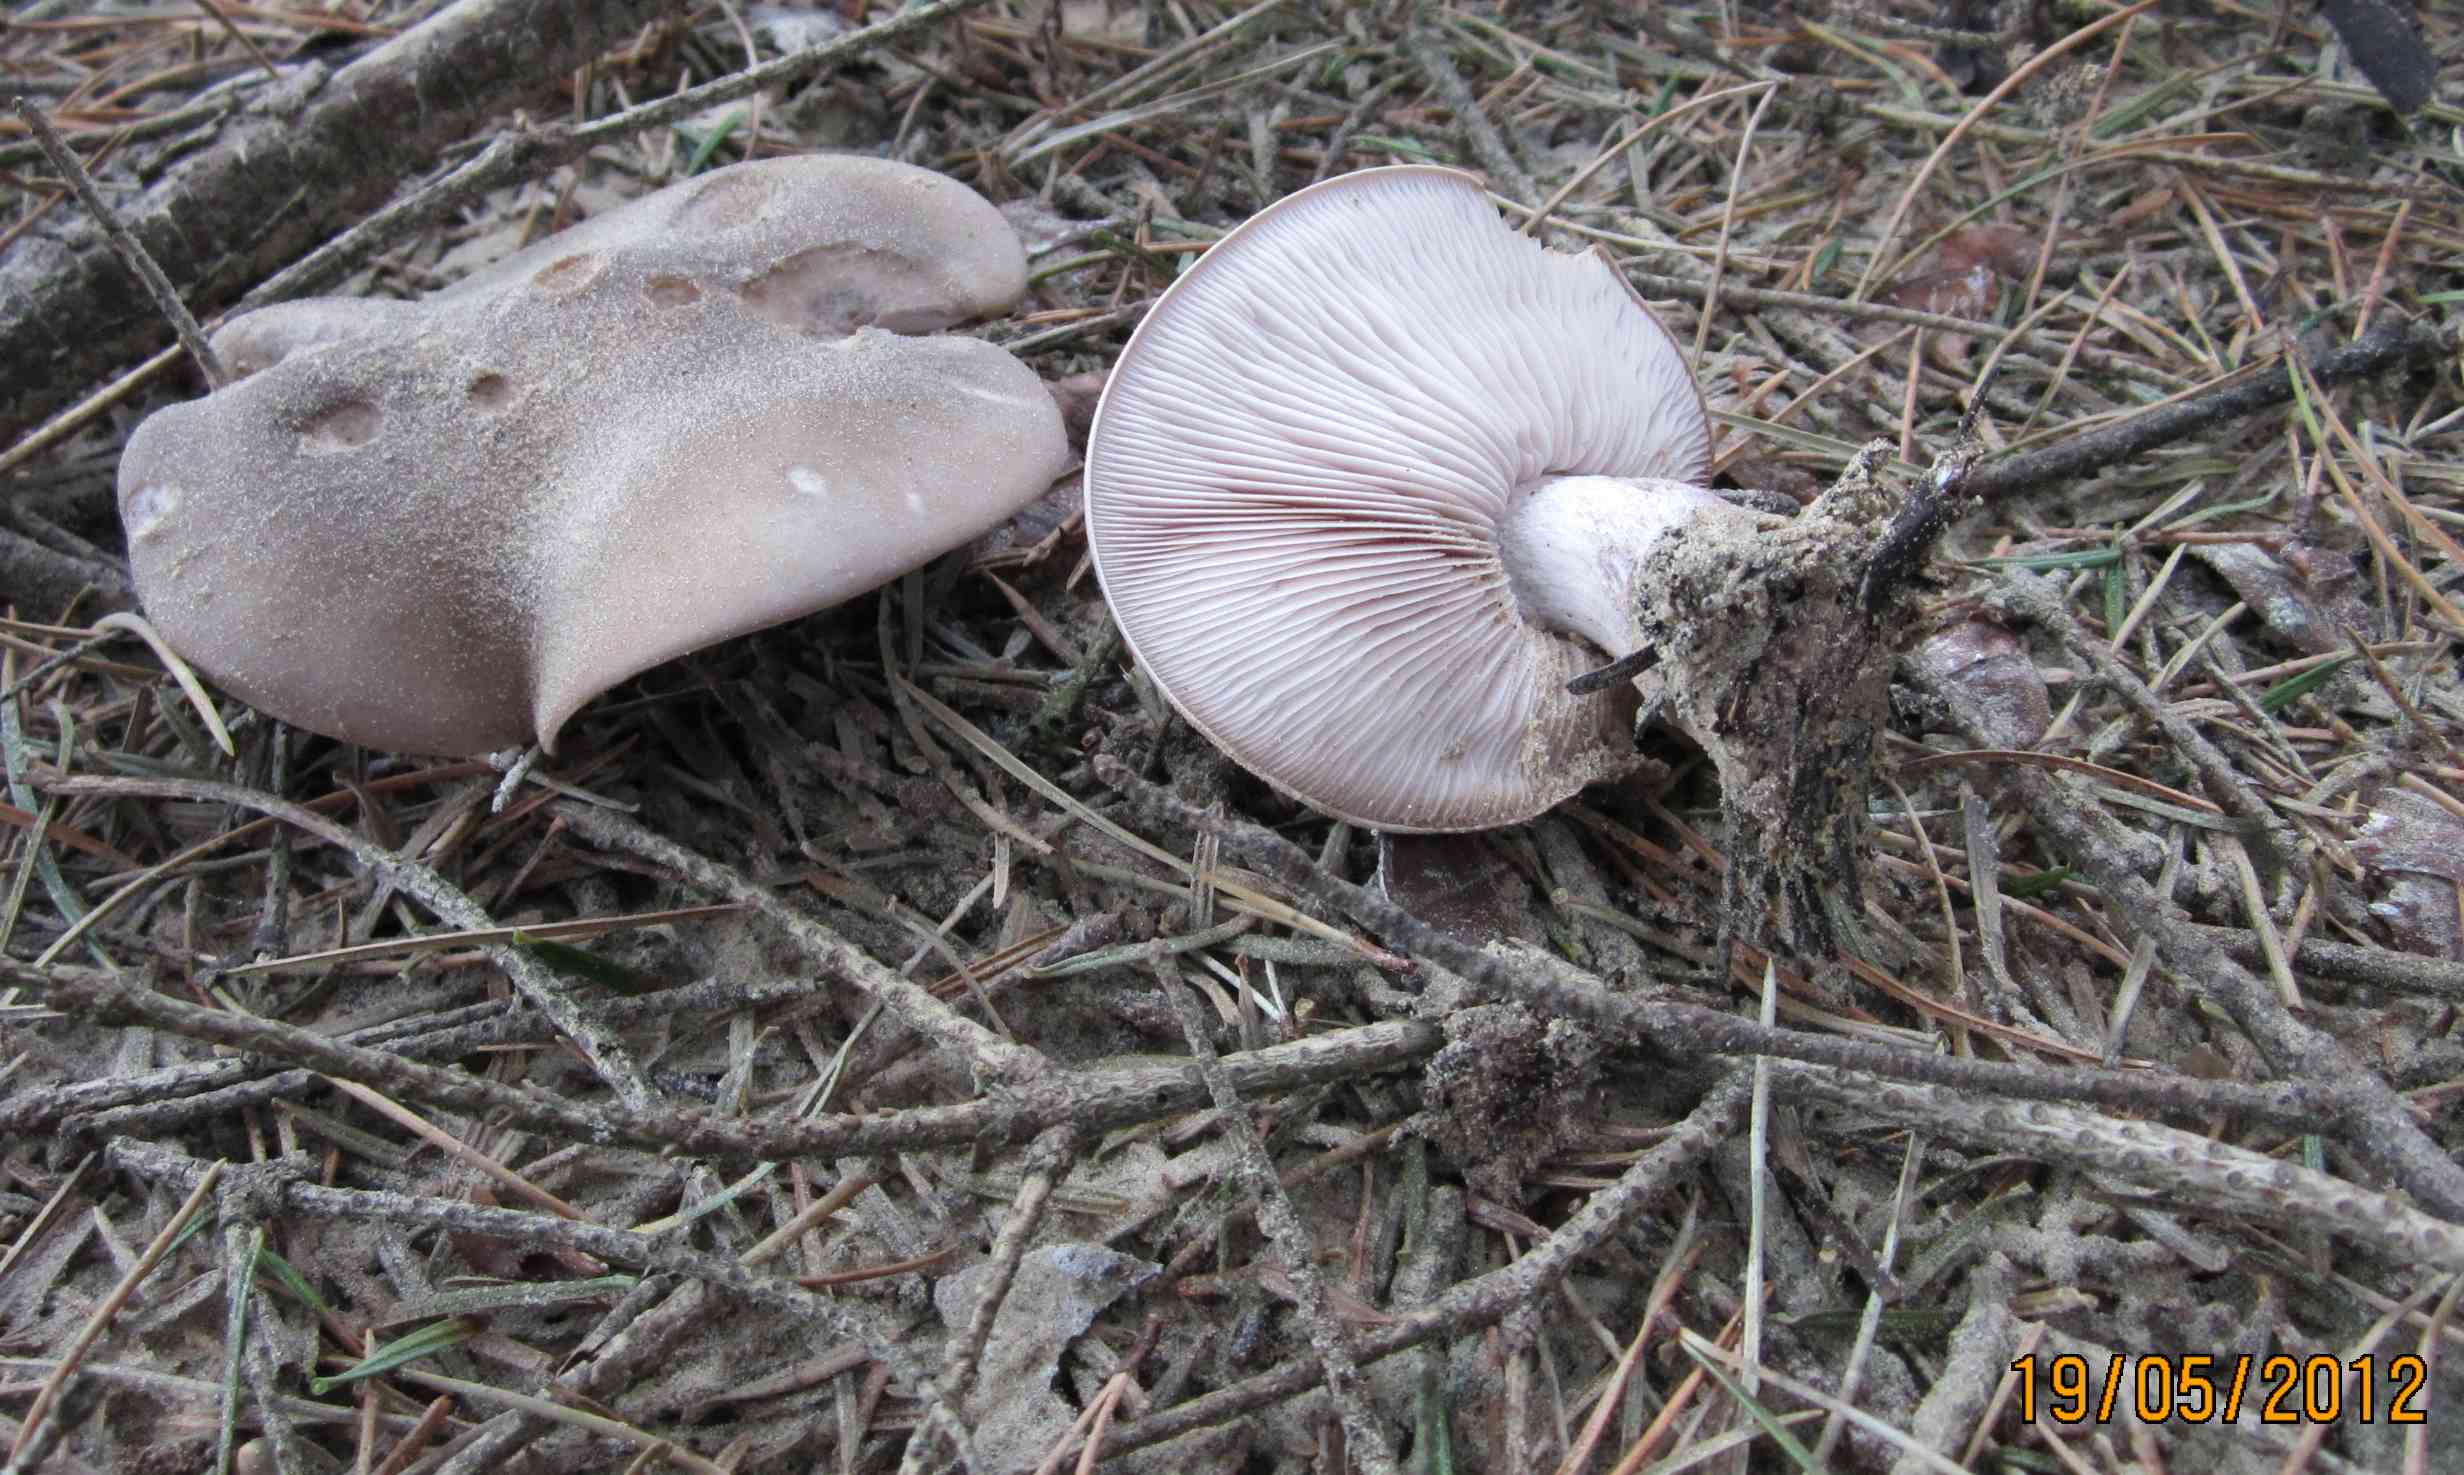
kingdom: Fungi
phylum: Basidiomycota
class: Agaricomycetes
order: Agaricales
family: Tricholomataceae
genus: Lepista
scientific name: Lepista nuda
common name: violet hekseringshat
